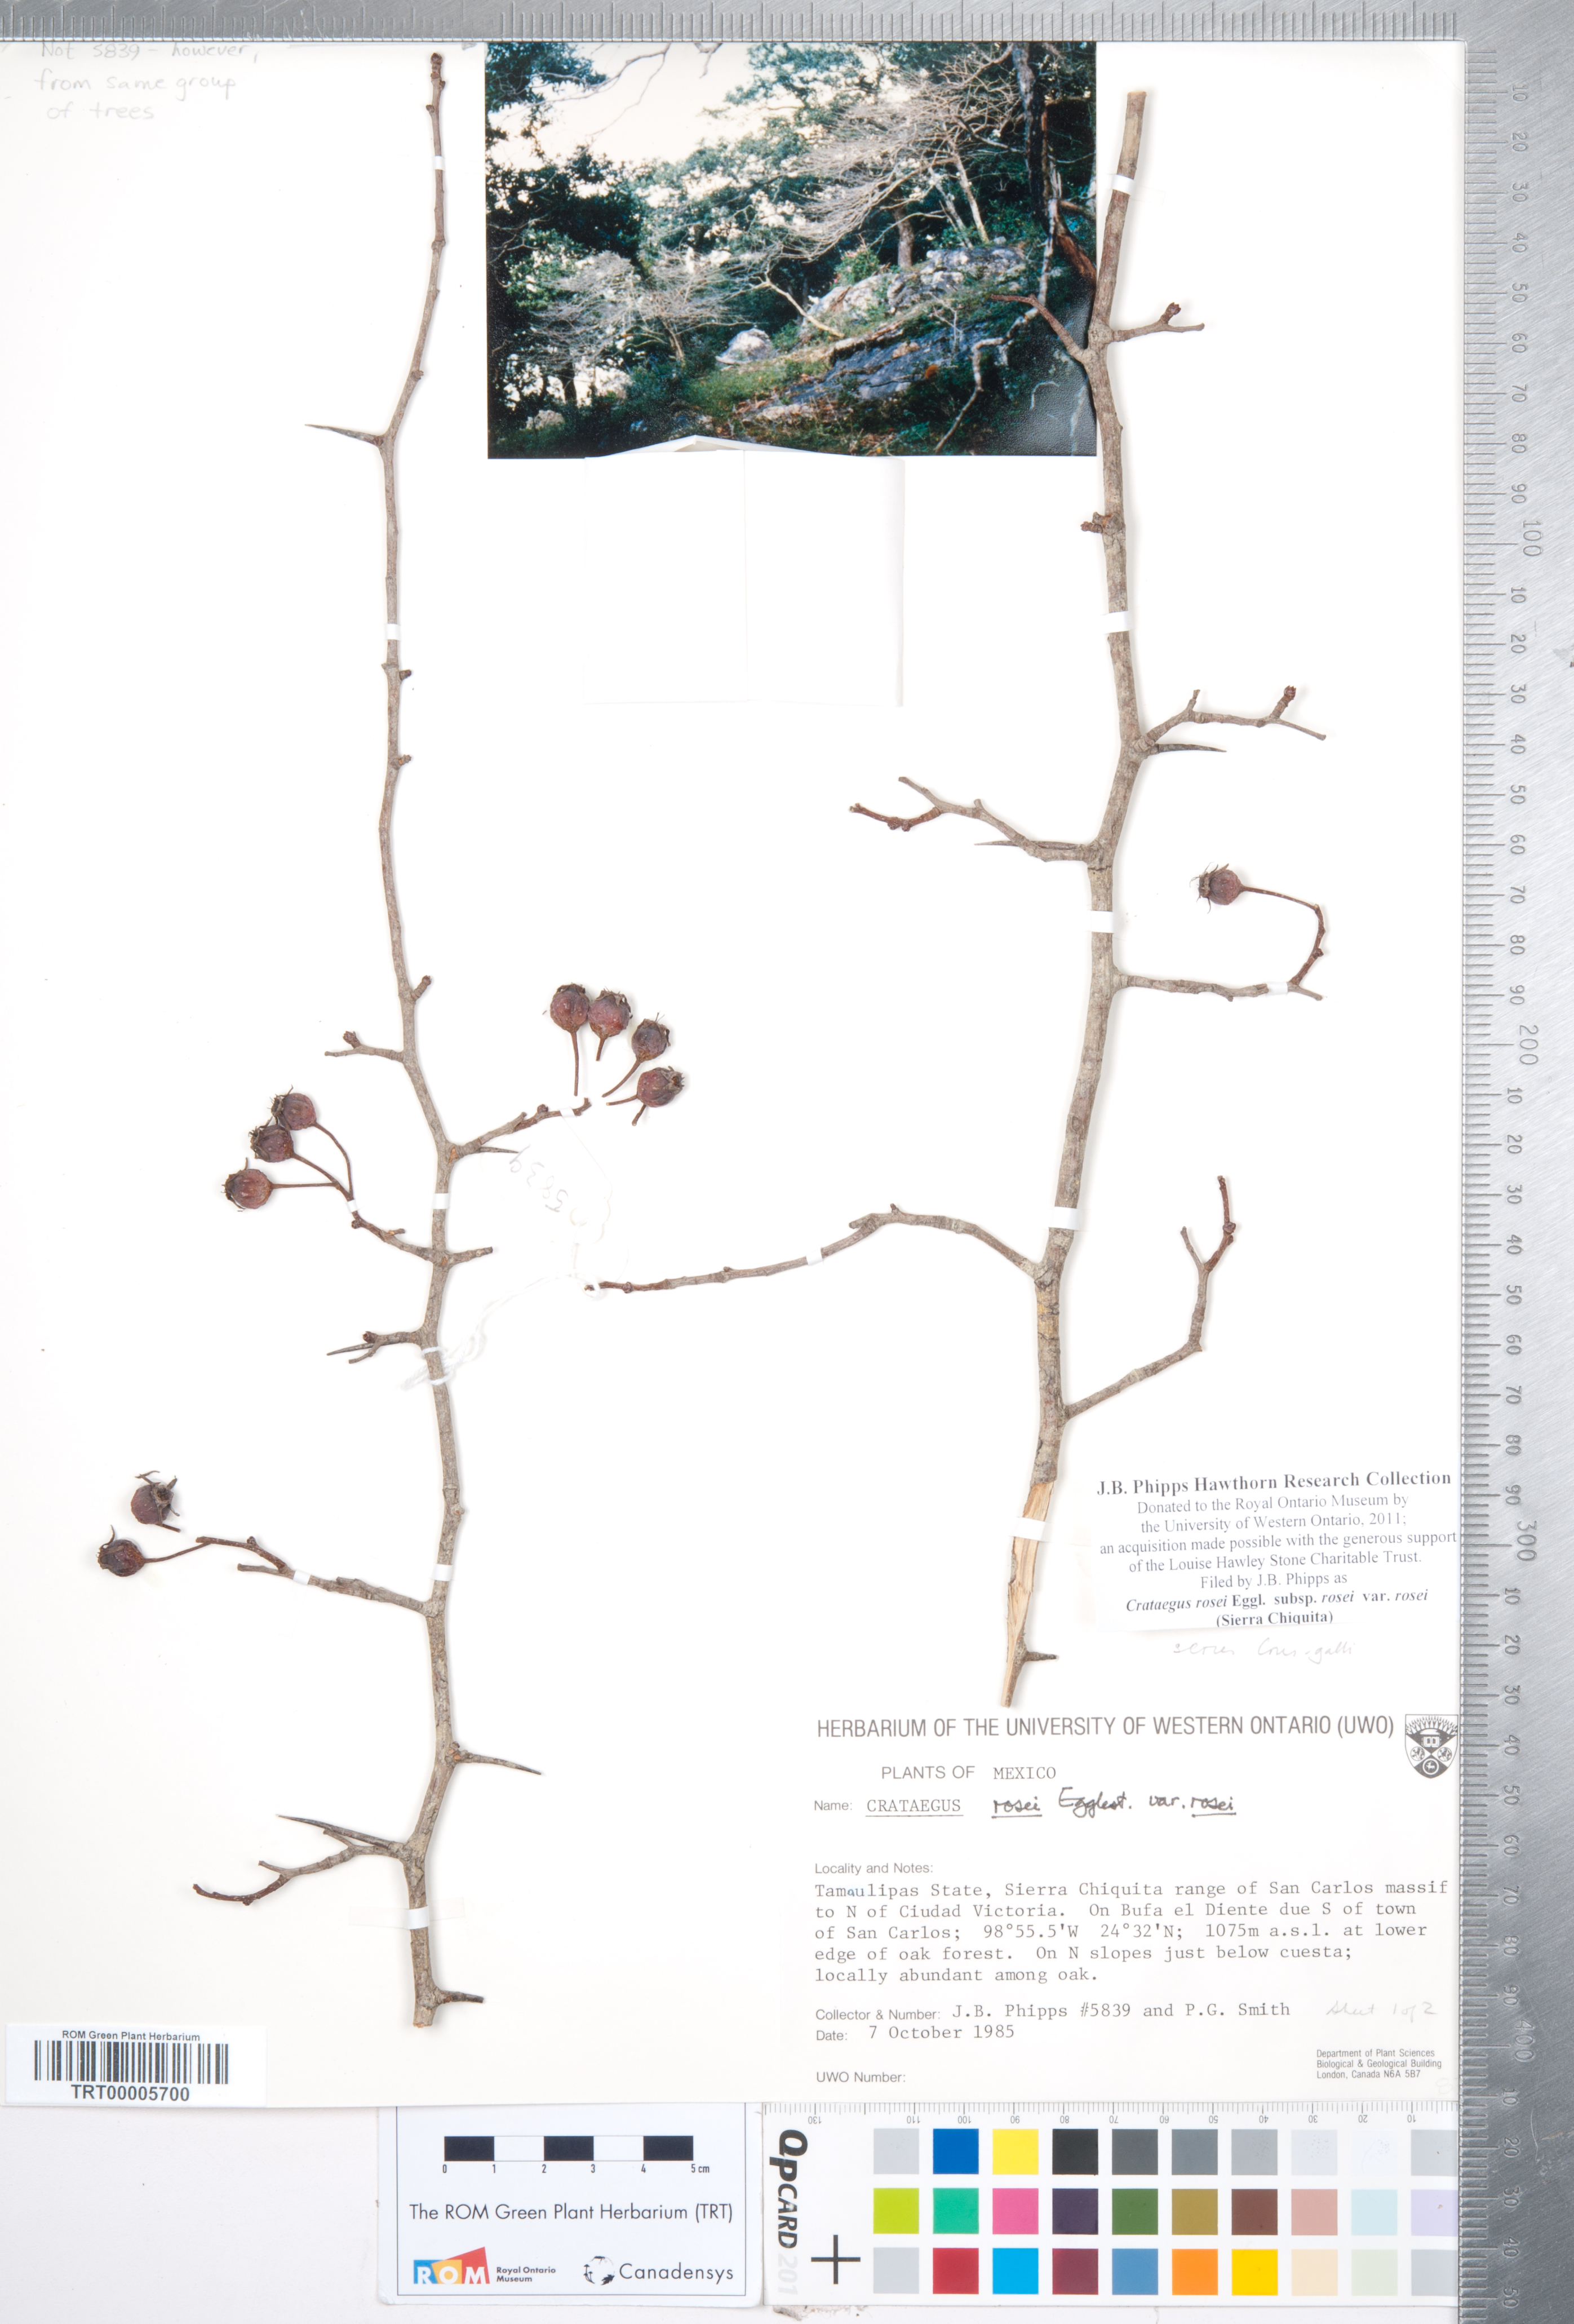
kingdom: Plantae
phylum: Tracheophyta
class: Magnoliopsida
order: Rosales
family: Rosaceae
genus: Crataegus
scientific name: Crataegus rosei
